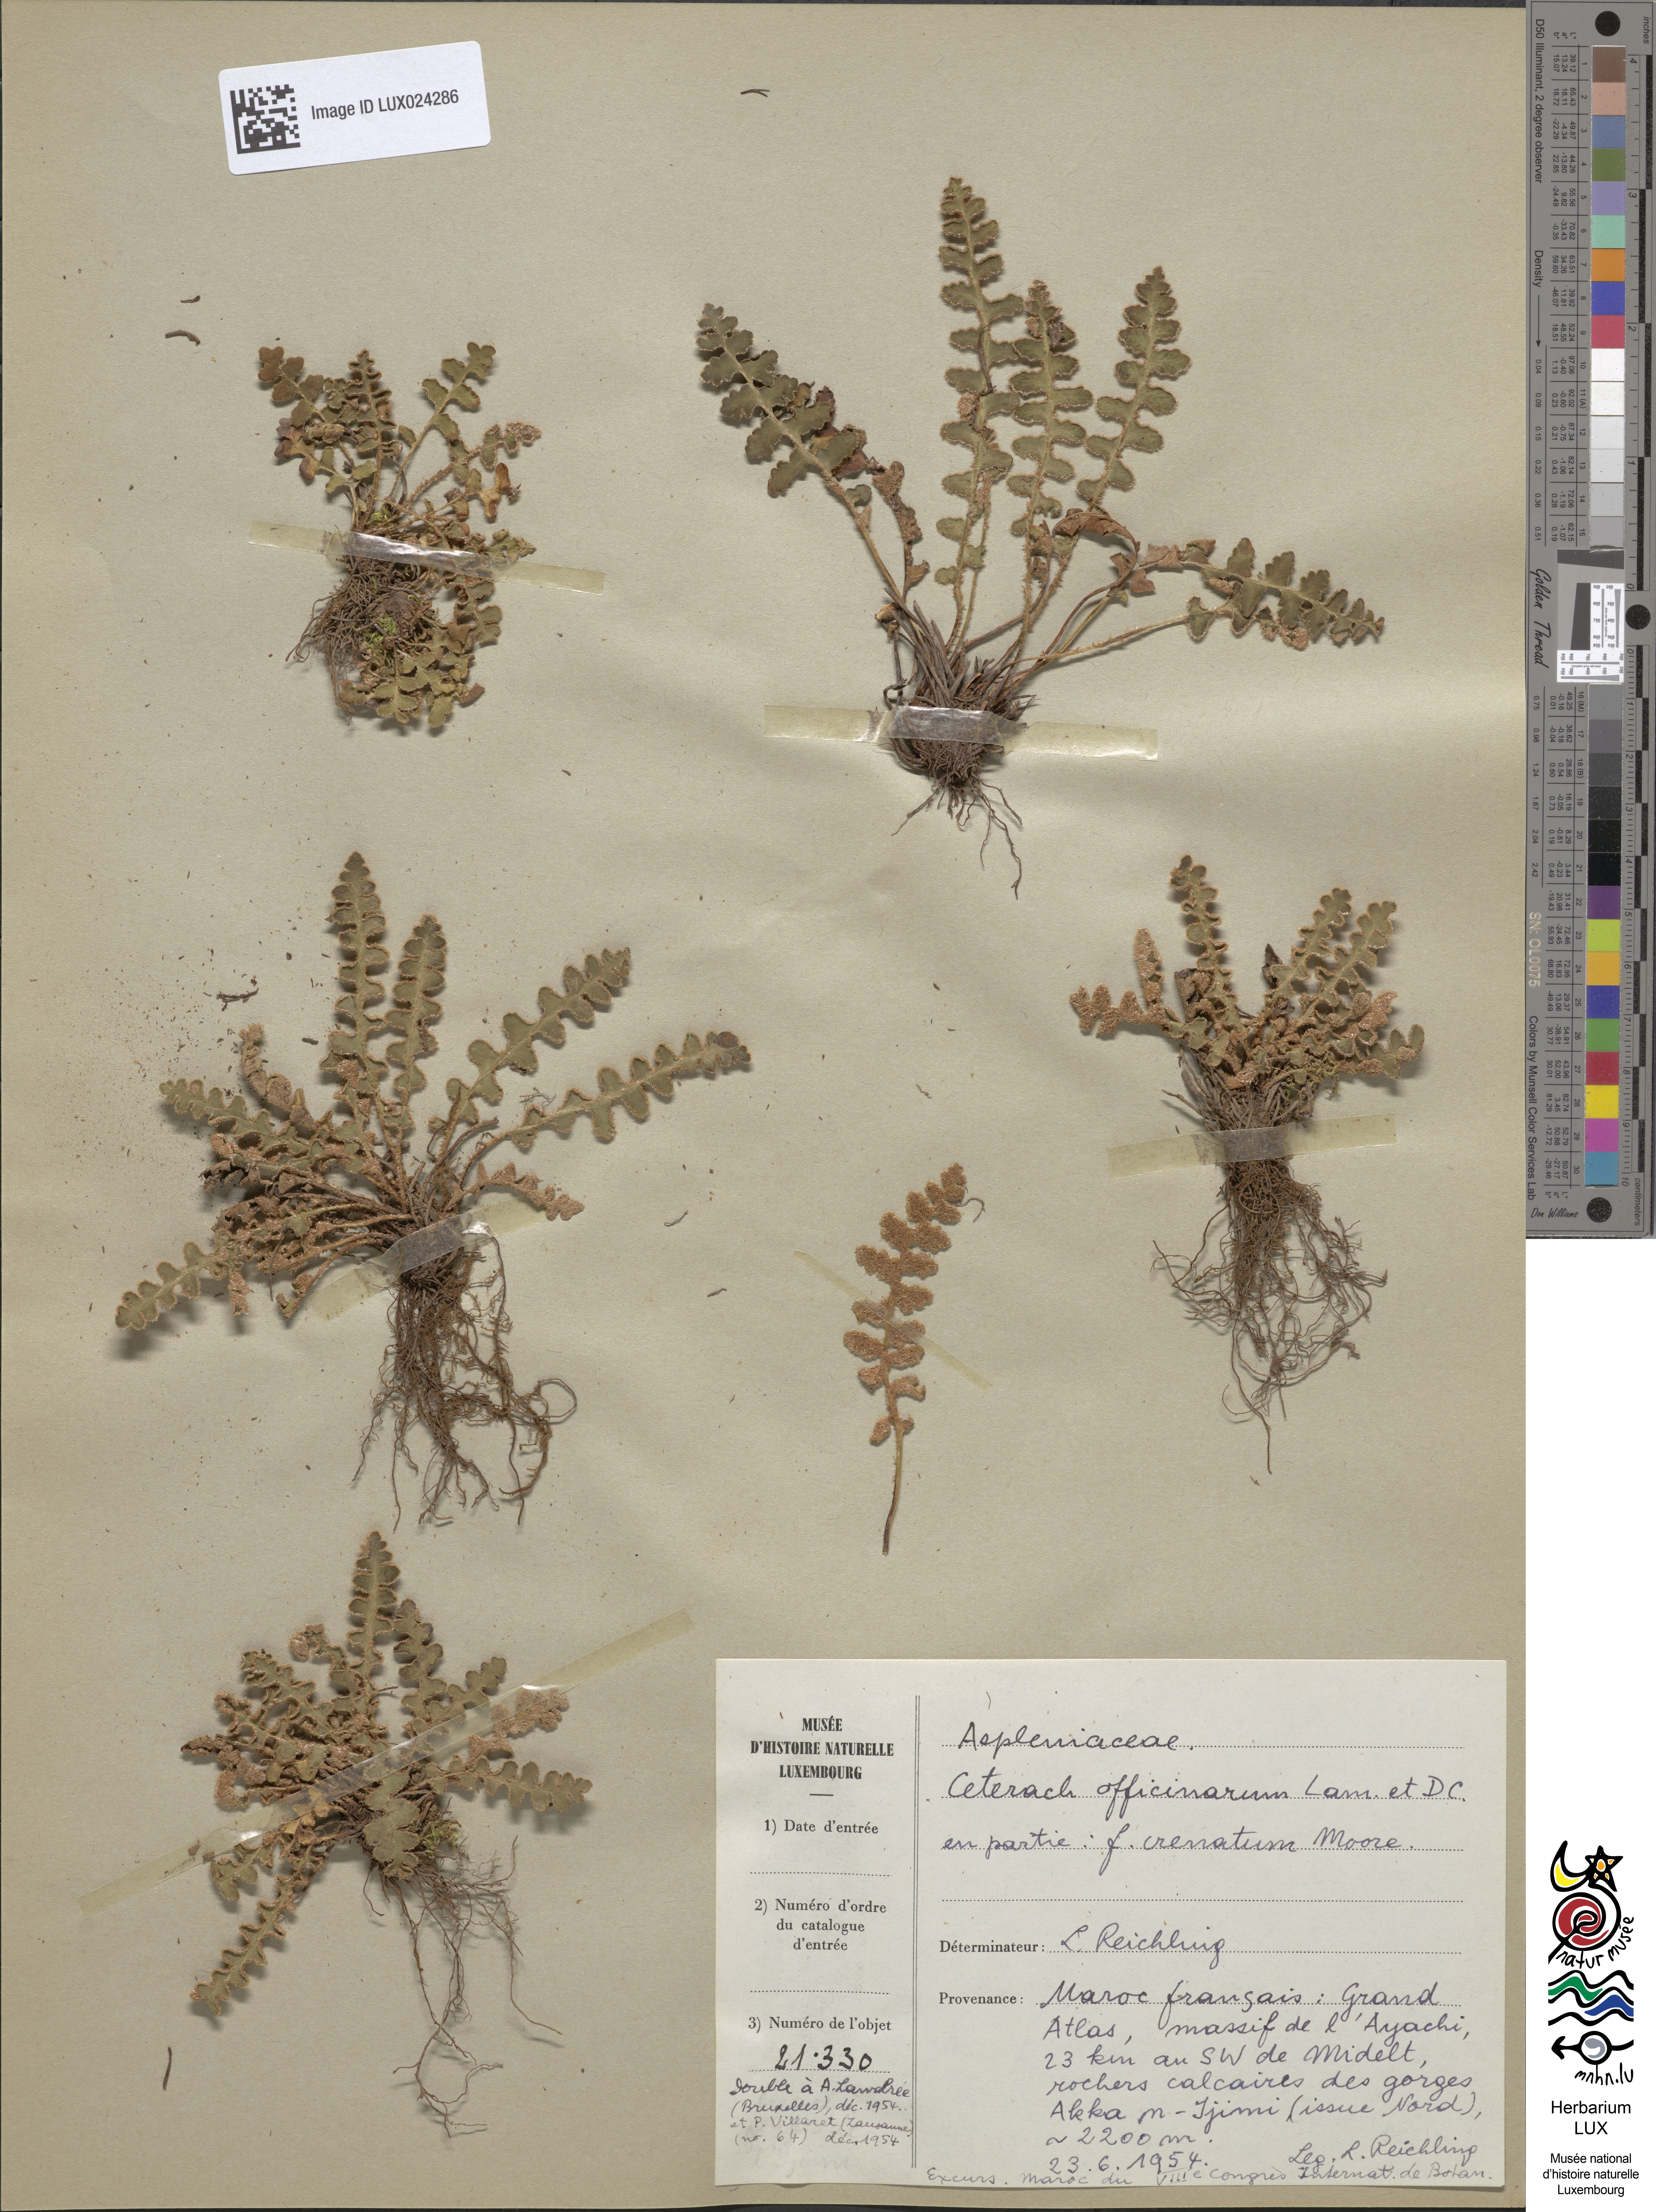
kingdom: Plantae
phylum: Tracheophyta
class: Polypodiopsida
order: Polypodiales
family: Aspleniaceae
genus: Asplenium
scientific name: Asplenium ceterach
